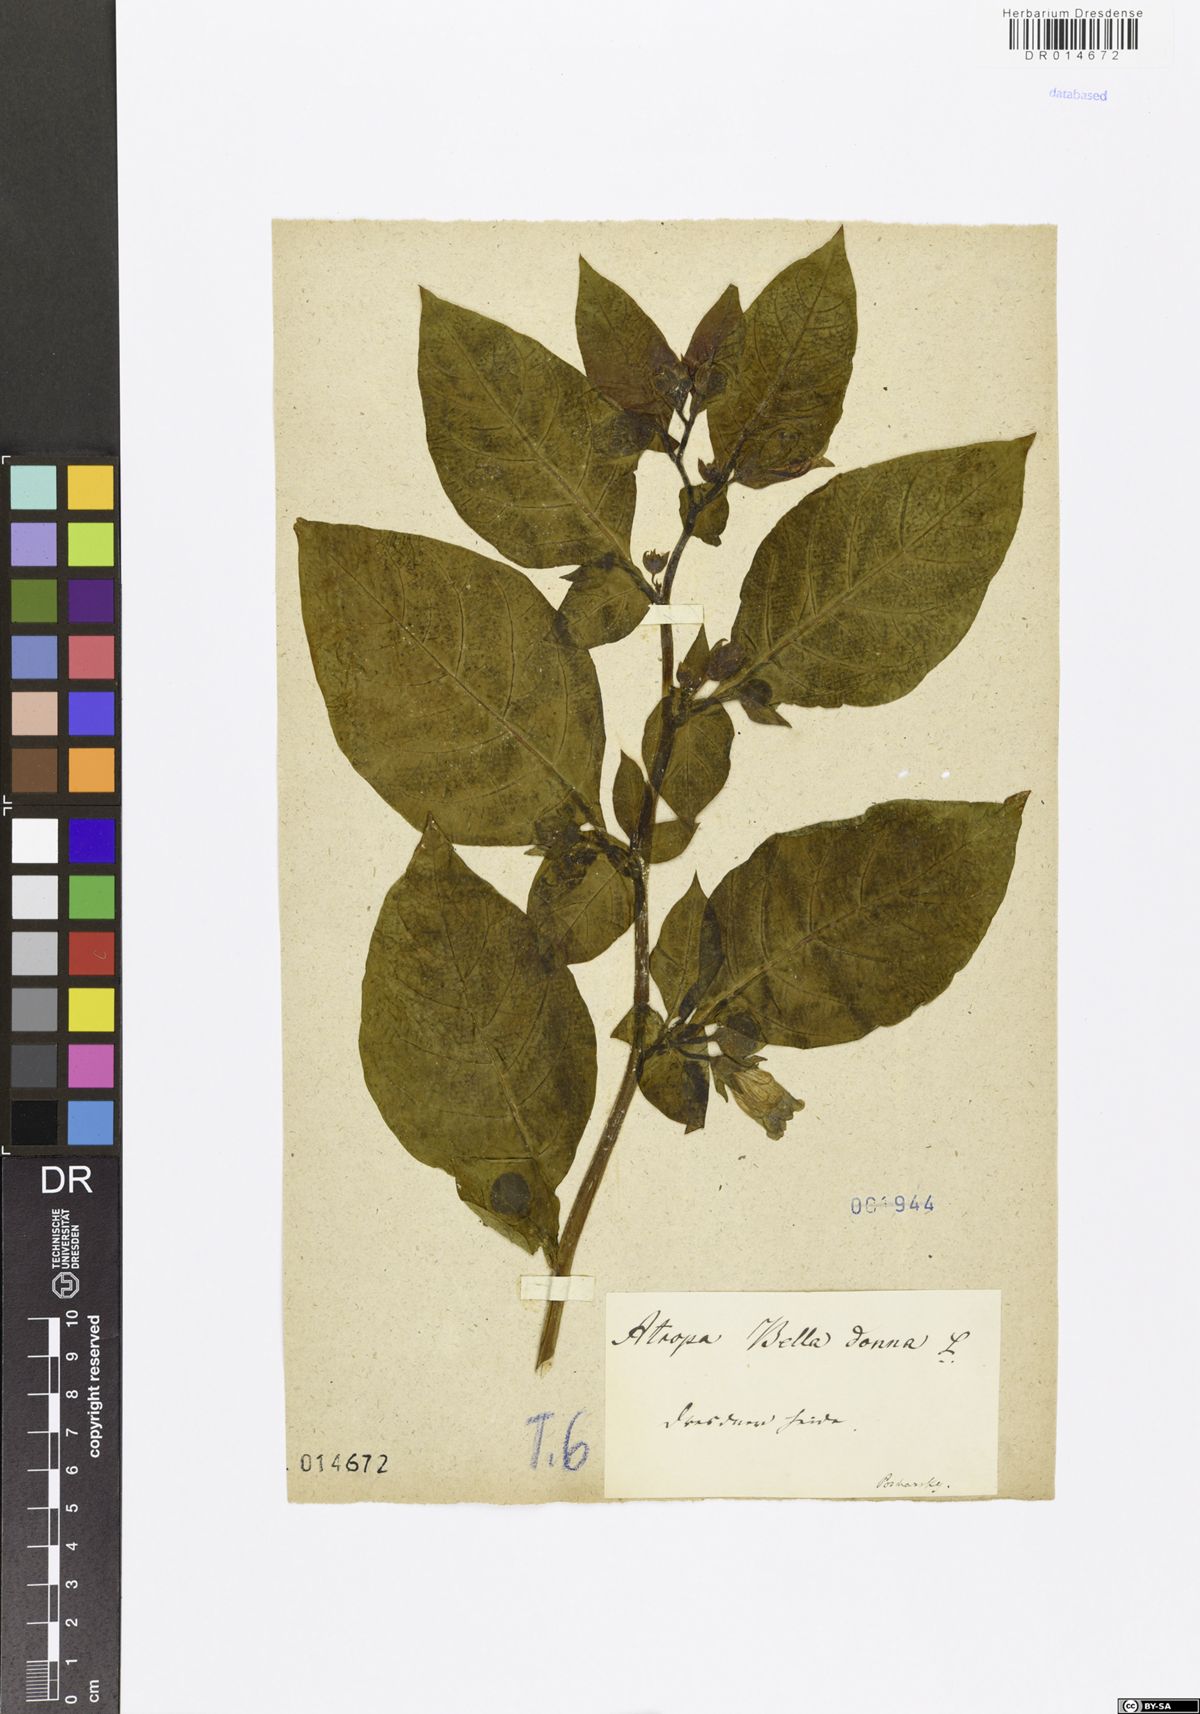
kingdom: Plantae
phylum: Tracheophyta
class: Magnoliopsida
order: Solanales
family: Solanaceae
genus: Atropa
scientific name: Atropa belladonna
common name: Deadly nightshade
